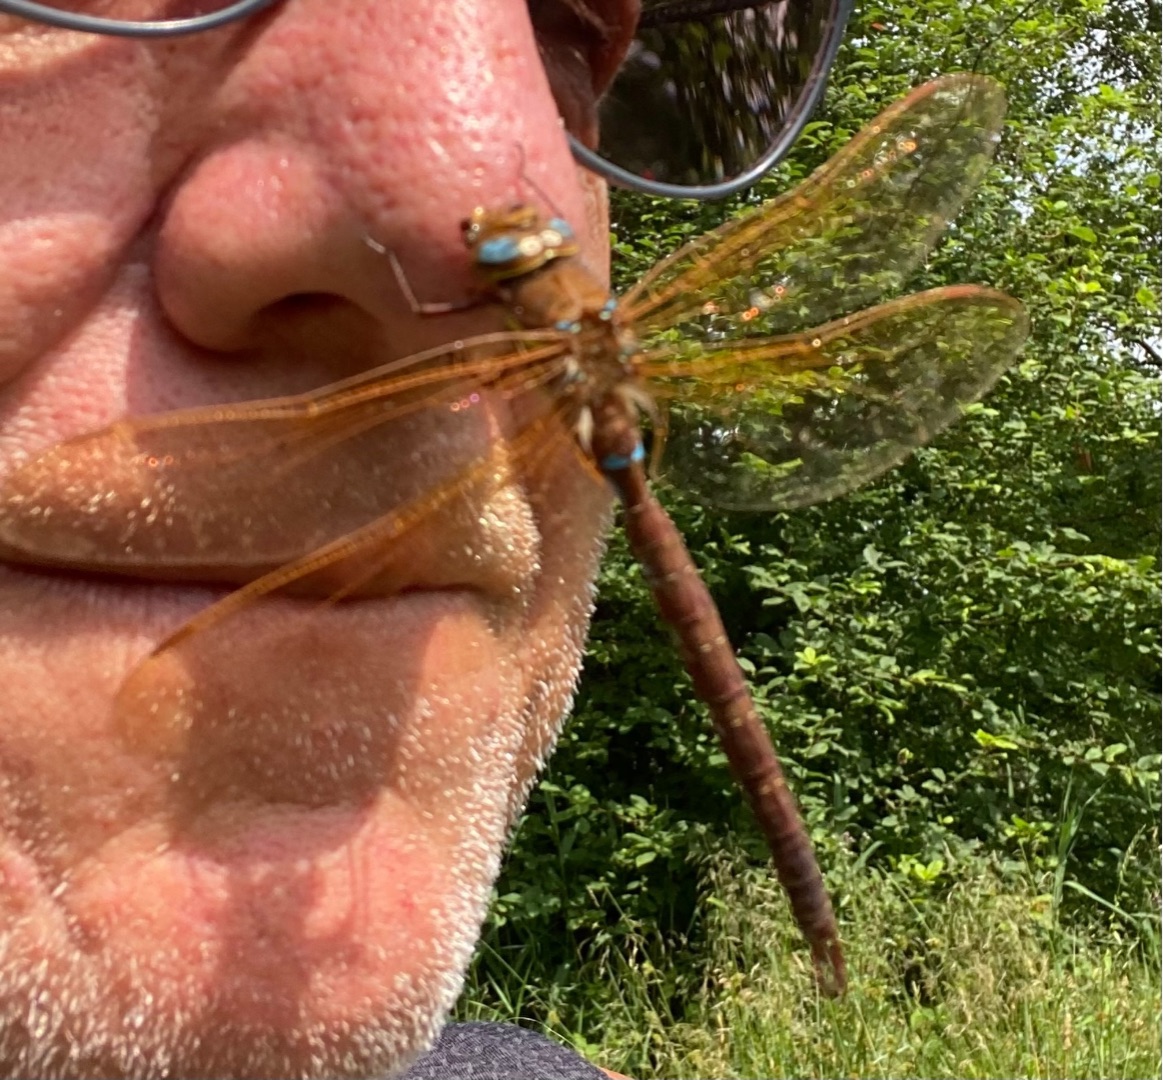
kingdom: Animalia
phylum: Arthropoda
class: Insecta
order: Odonata
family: Aeshnidae
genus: Aeshna
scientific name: Aeshna grandis
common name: Brun mosaikguldsmed
